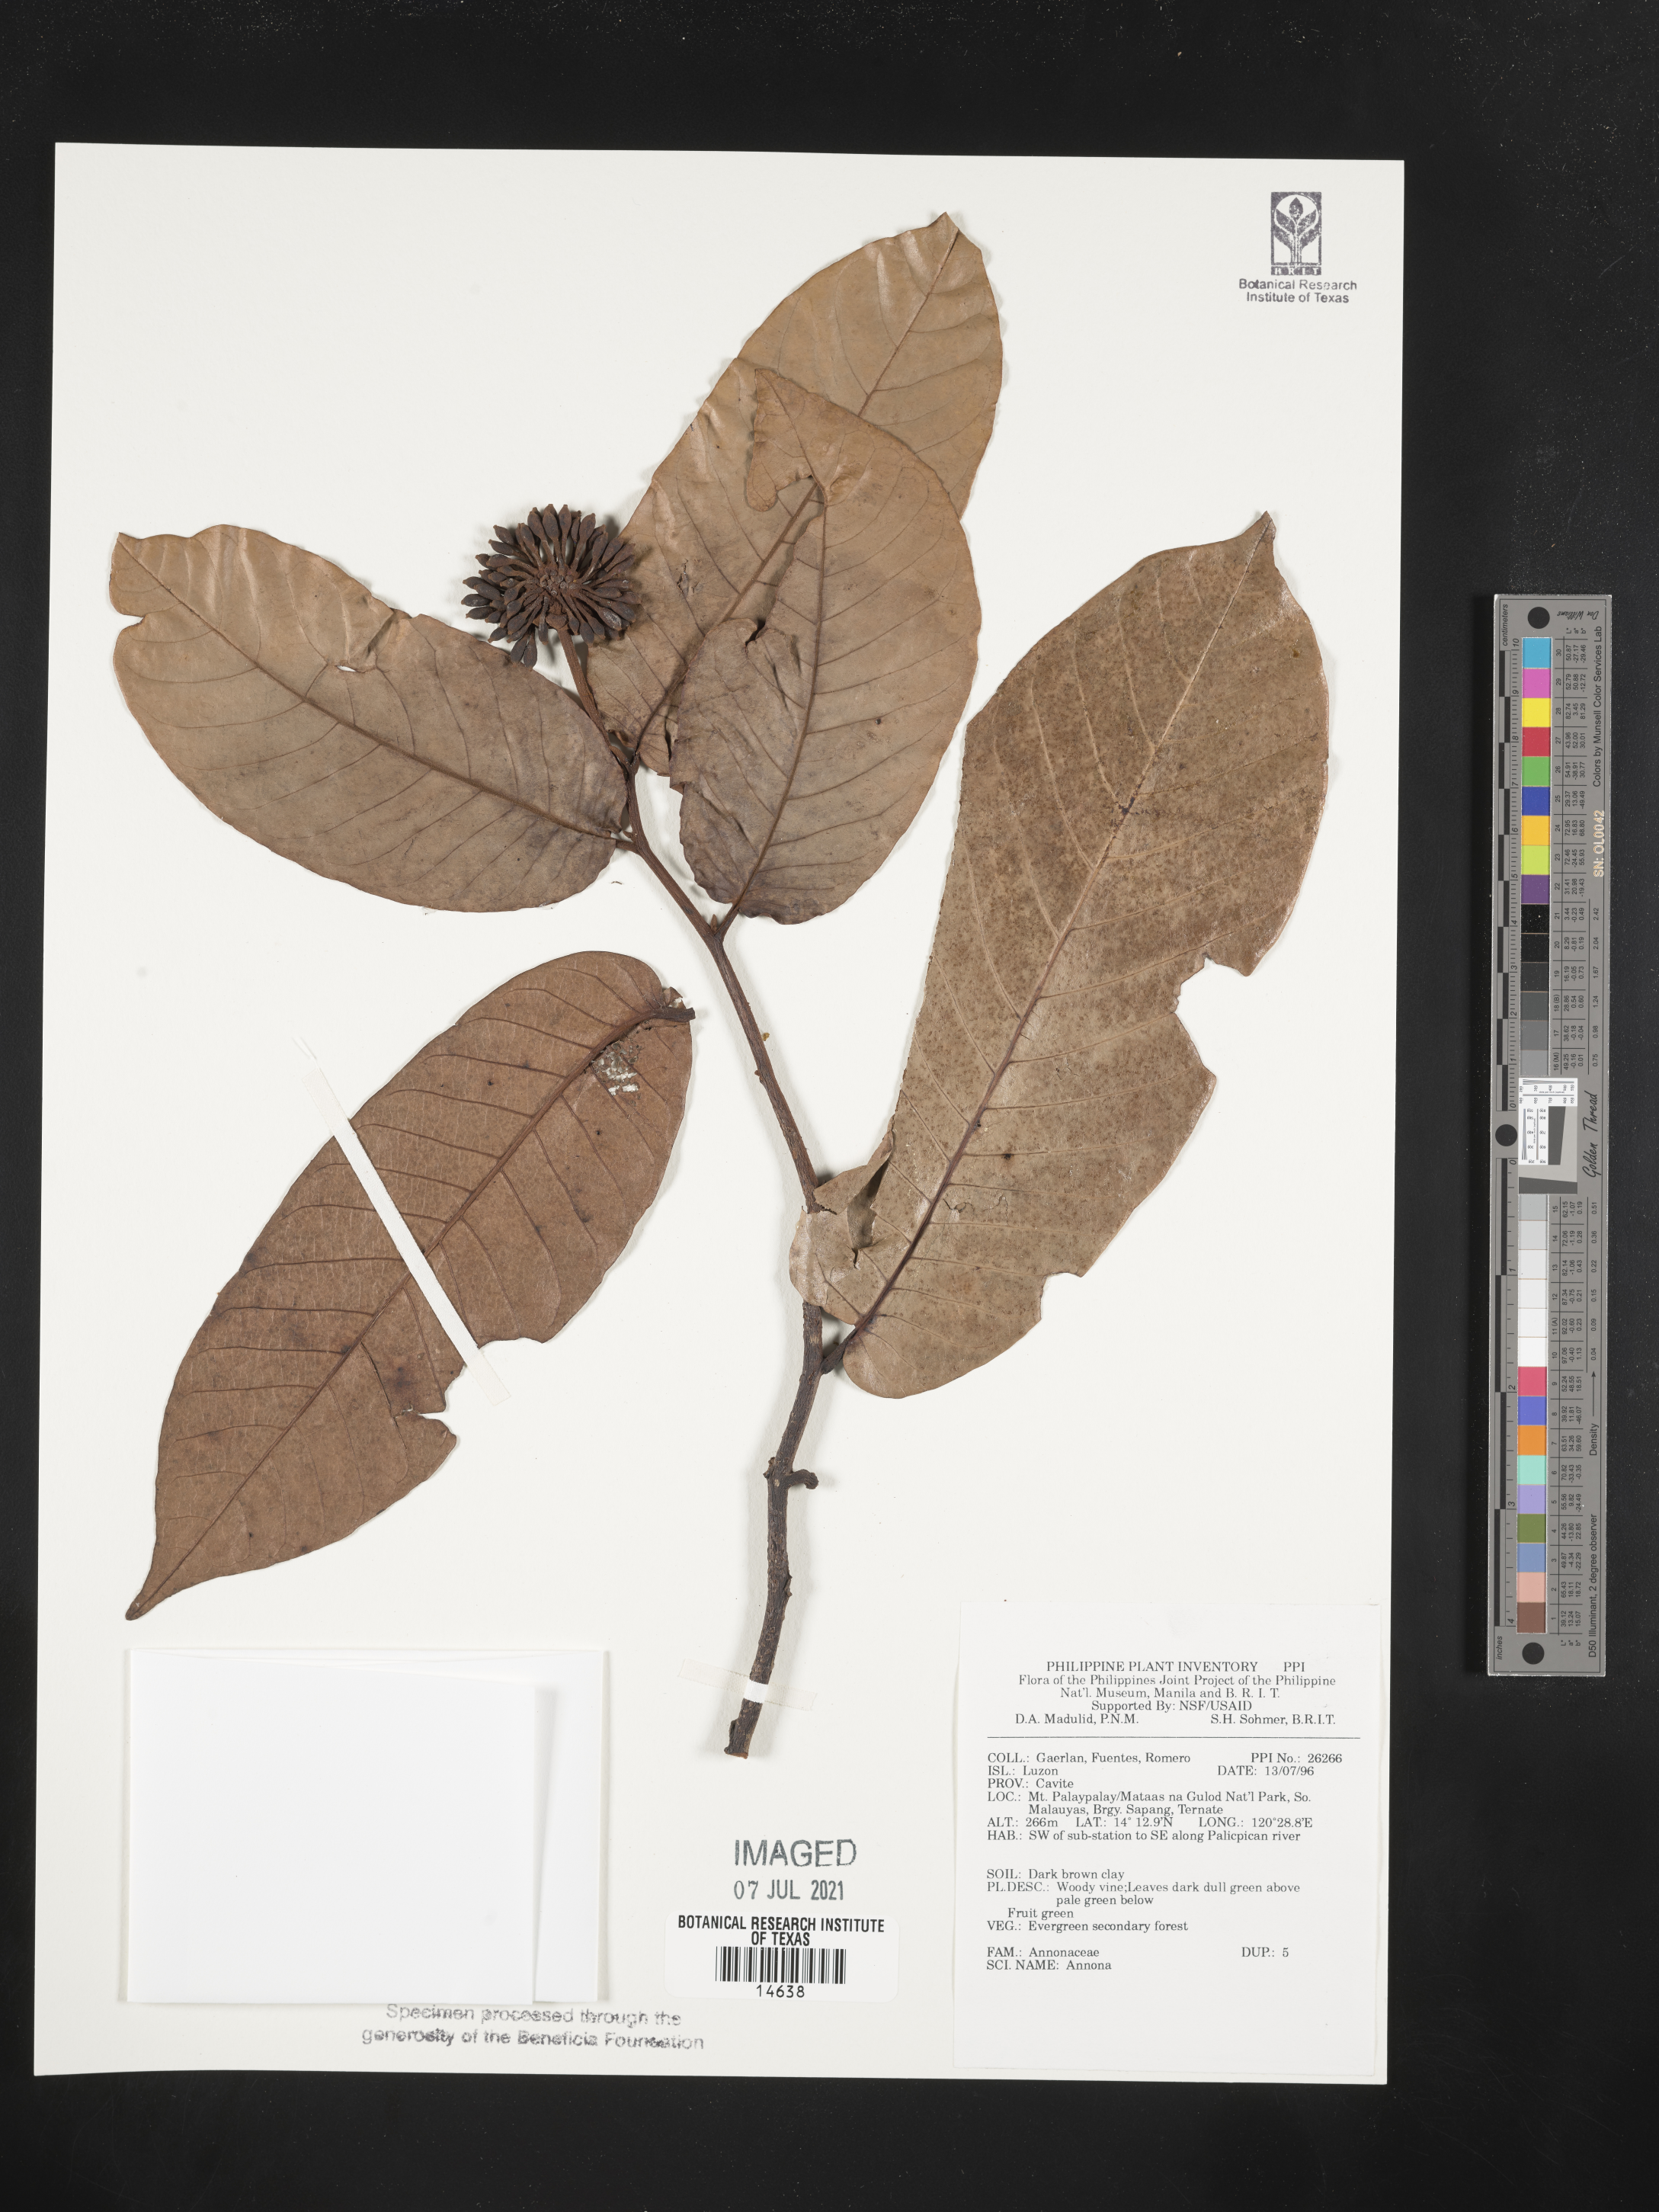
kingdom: Plantae
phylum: Tracheophyta
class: Magnoliopsida
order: Magnoliales
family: Annonaceae
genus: Annona
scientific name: Annona
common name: Anona
